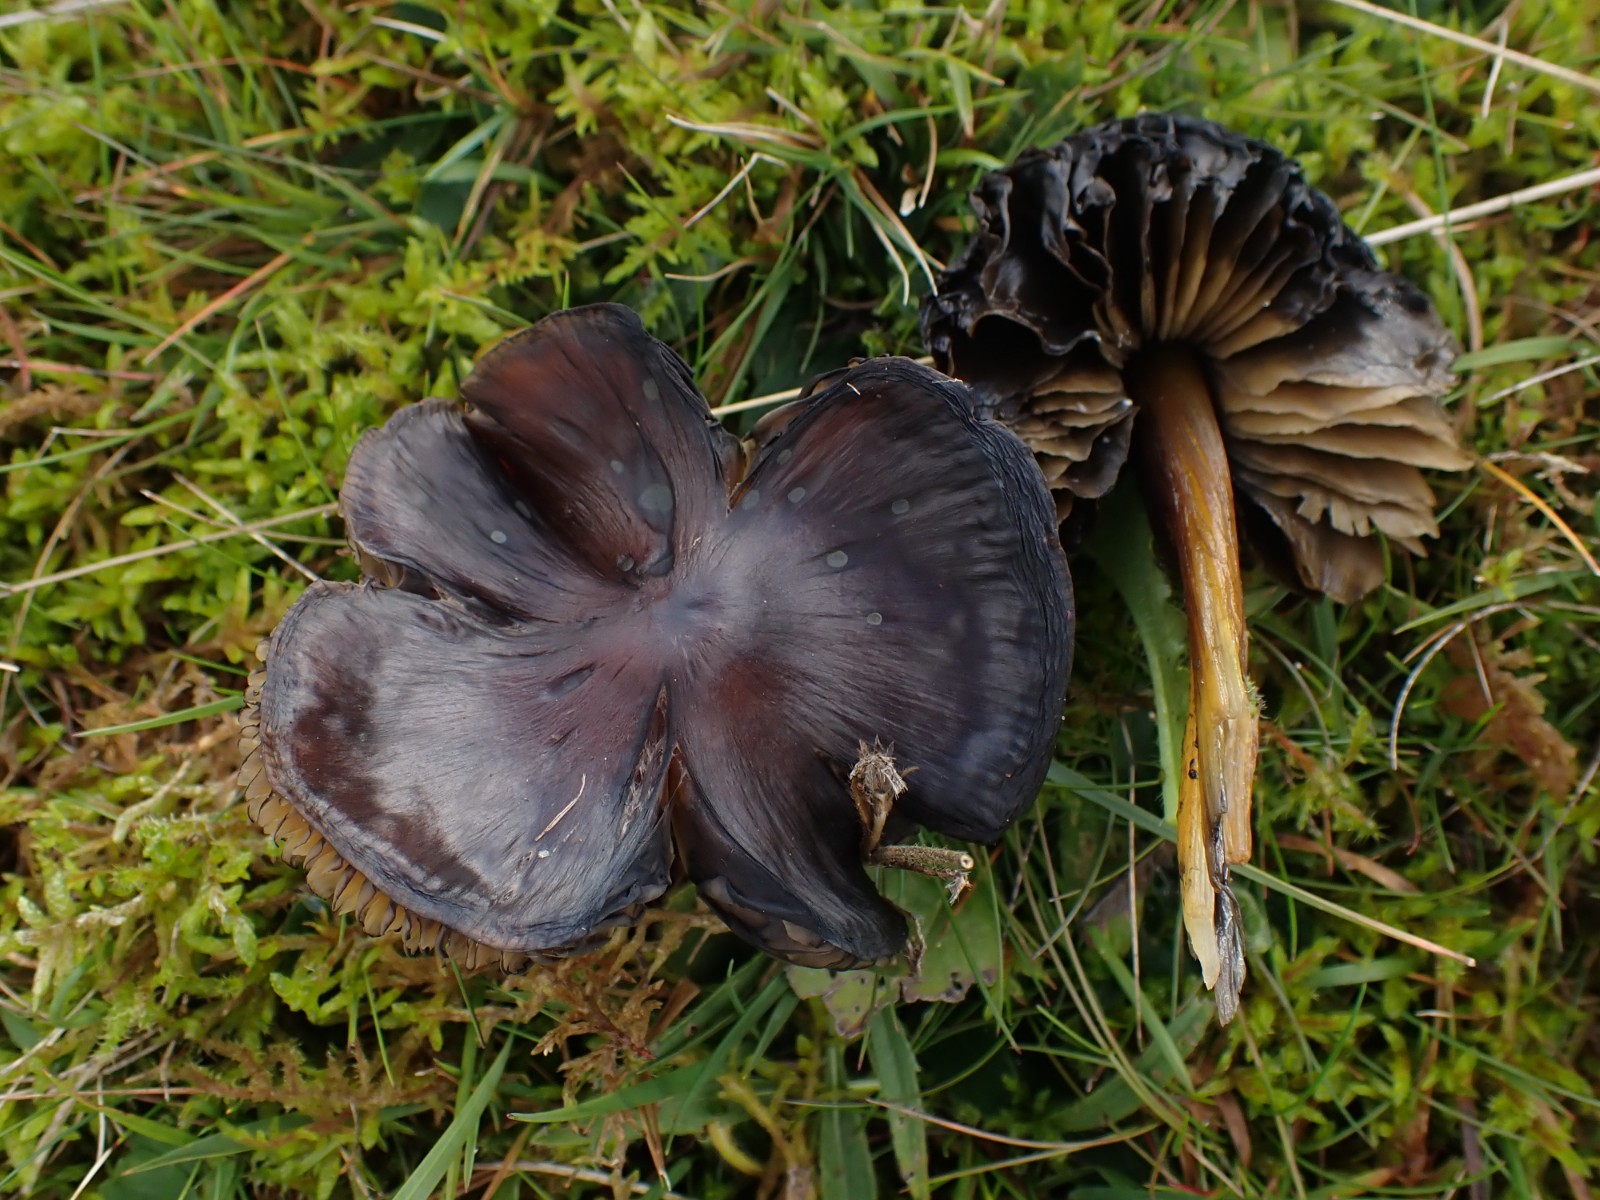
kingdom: Fungi
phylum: Basidiomycota
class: Agaricomycetes
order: Agaricales
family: Hygrophoraceae
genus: Hygrocybe
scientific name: Hygrocybe conica
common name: kegle-vokshat
